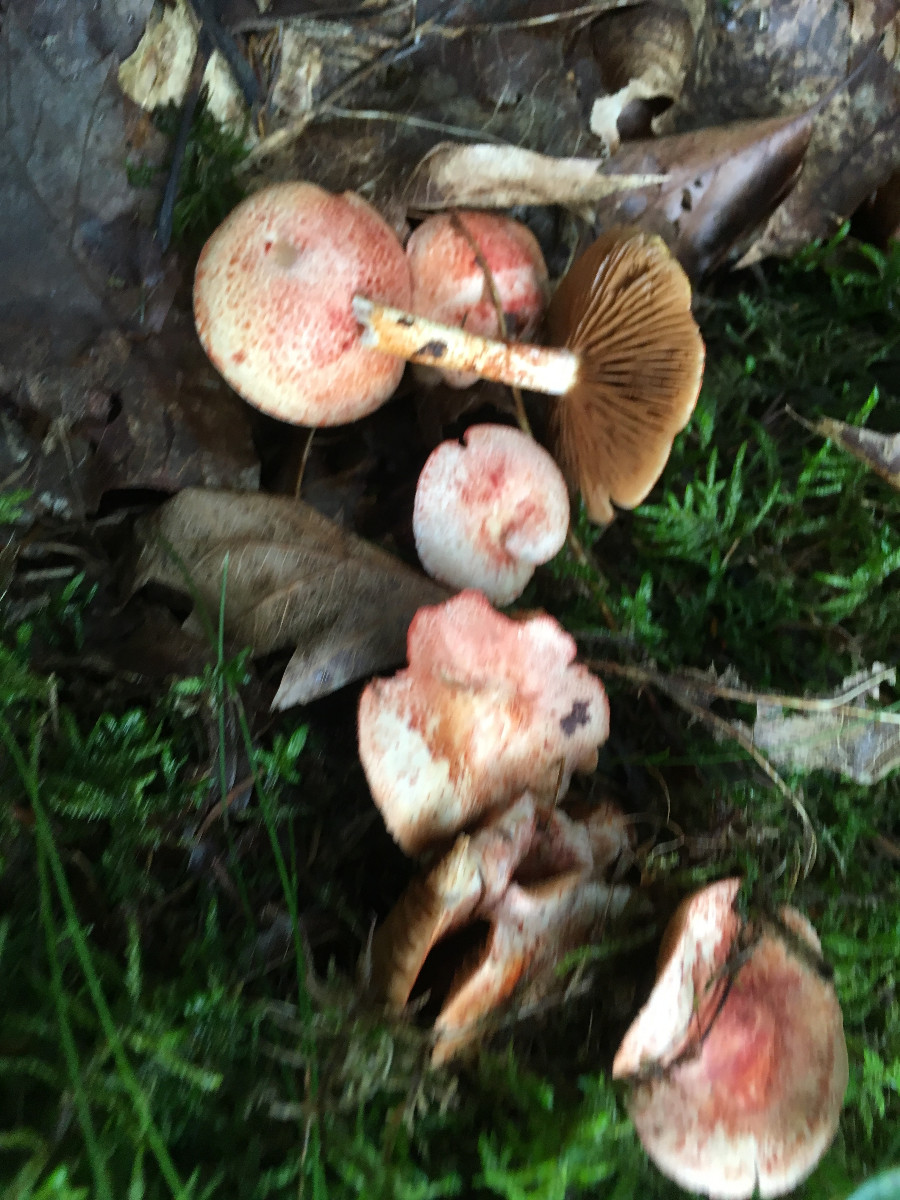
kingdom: Fungi
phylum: Basidiomycota
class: Agaricomycetes
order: Agaricales
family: Cortinariaceae
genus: Cortinarius
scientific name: Cortinarius bolaris
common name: cinnoberskællet slørhat
